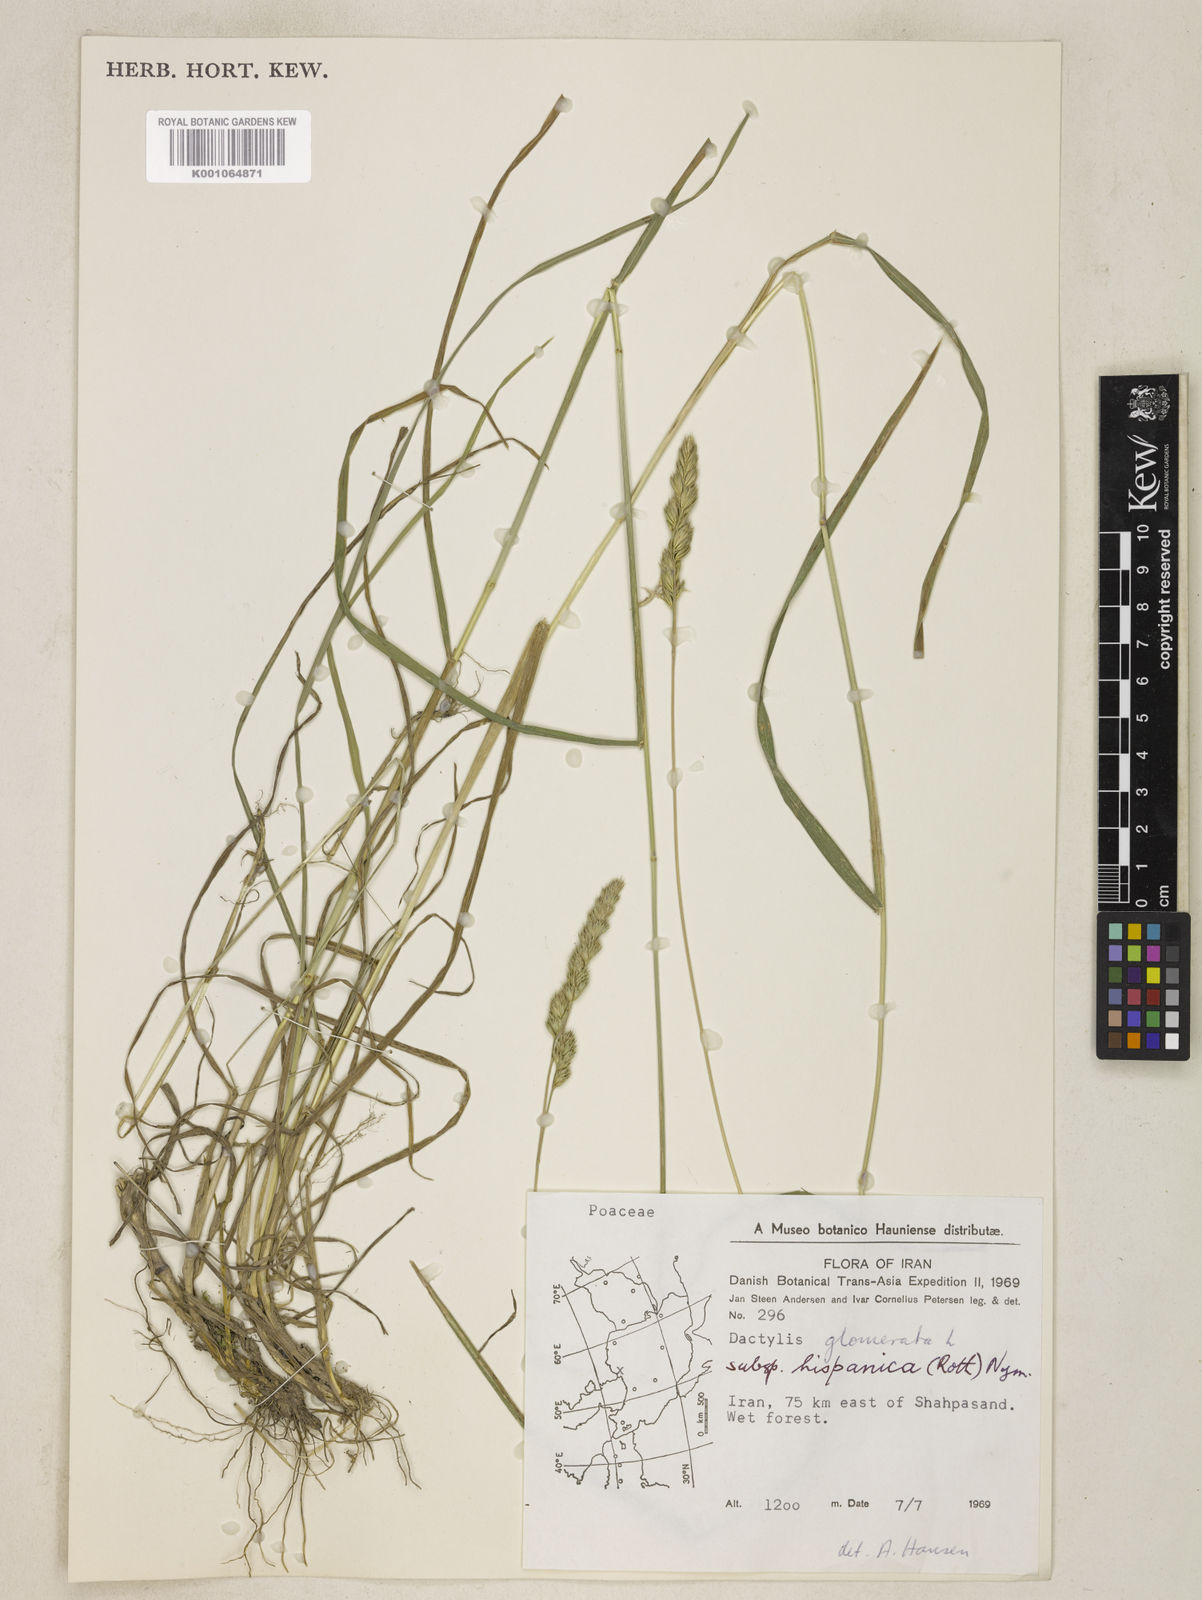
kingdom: Plantae
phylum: Tracheophyta
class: Liliopsida
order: Poales
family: Poaceae
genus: Dactylis
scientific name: Dactylis glomerata
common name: Orchardgrass
